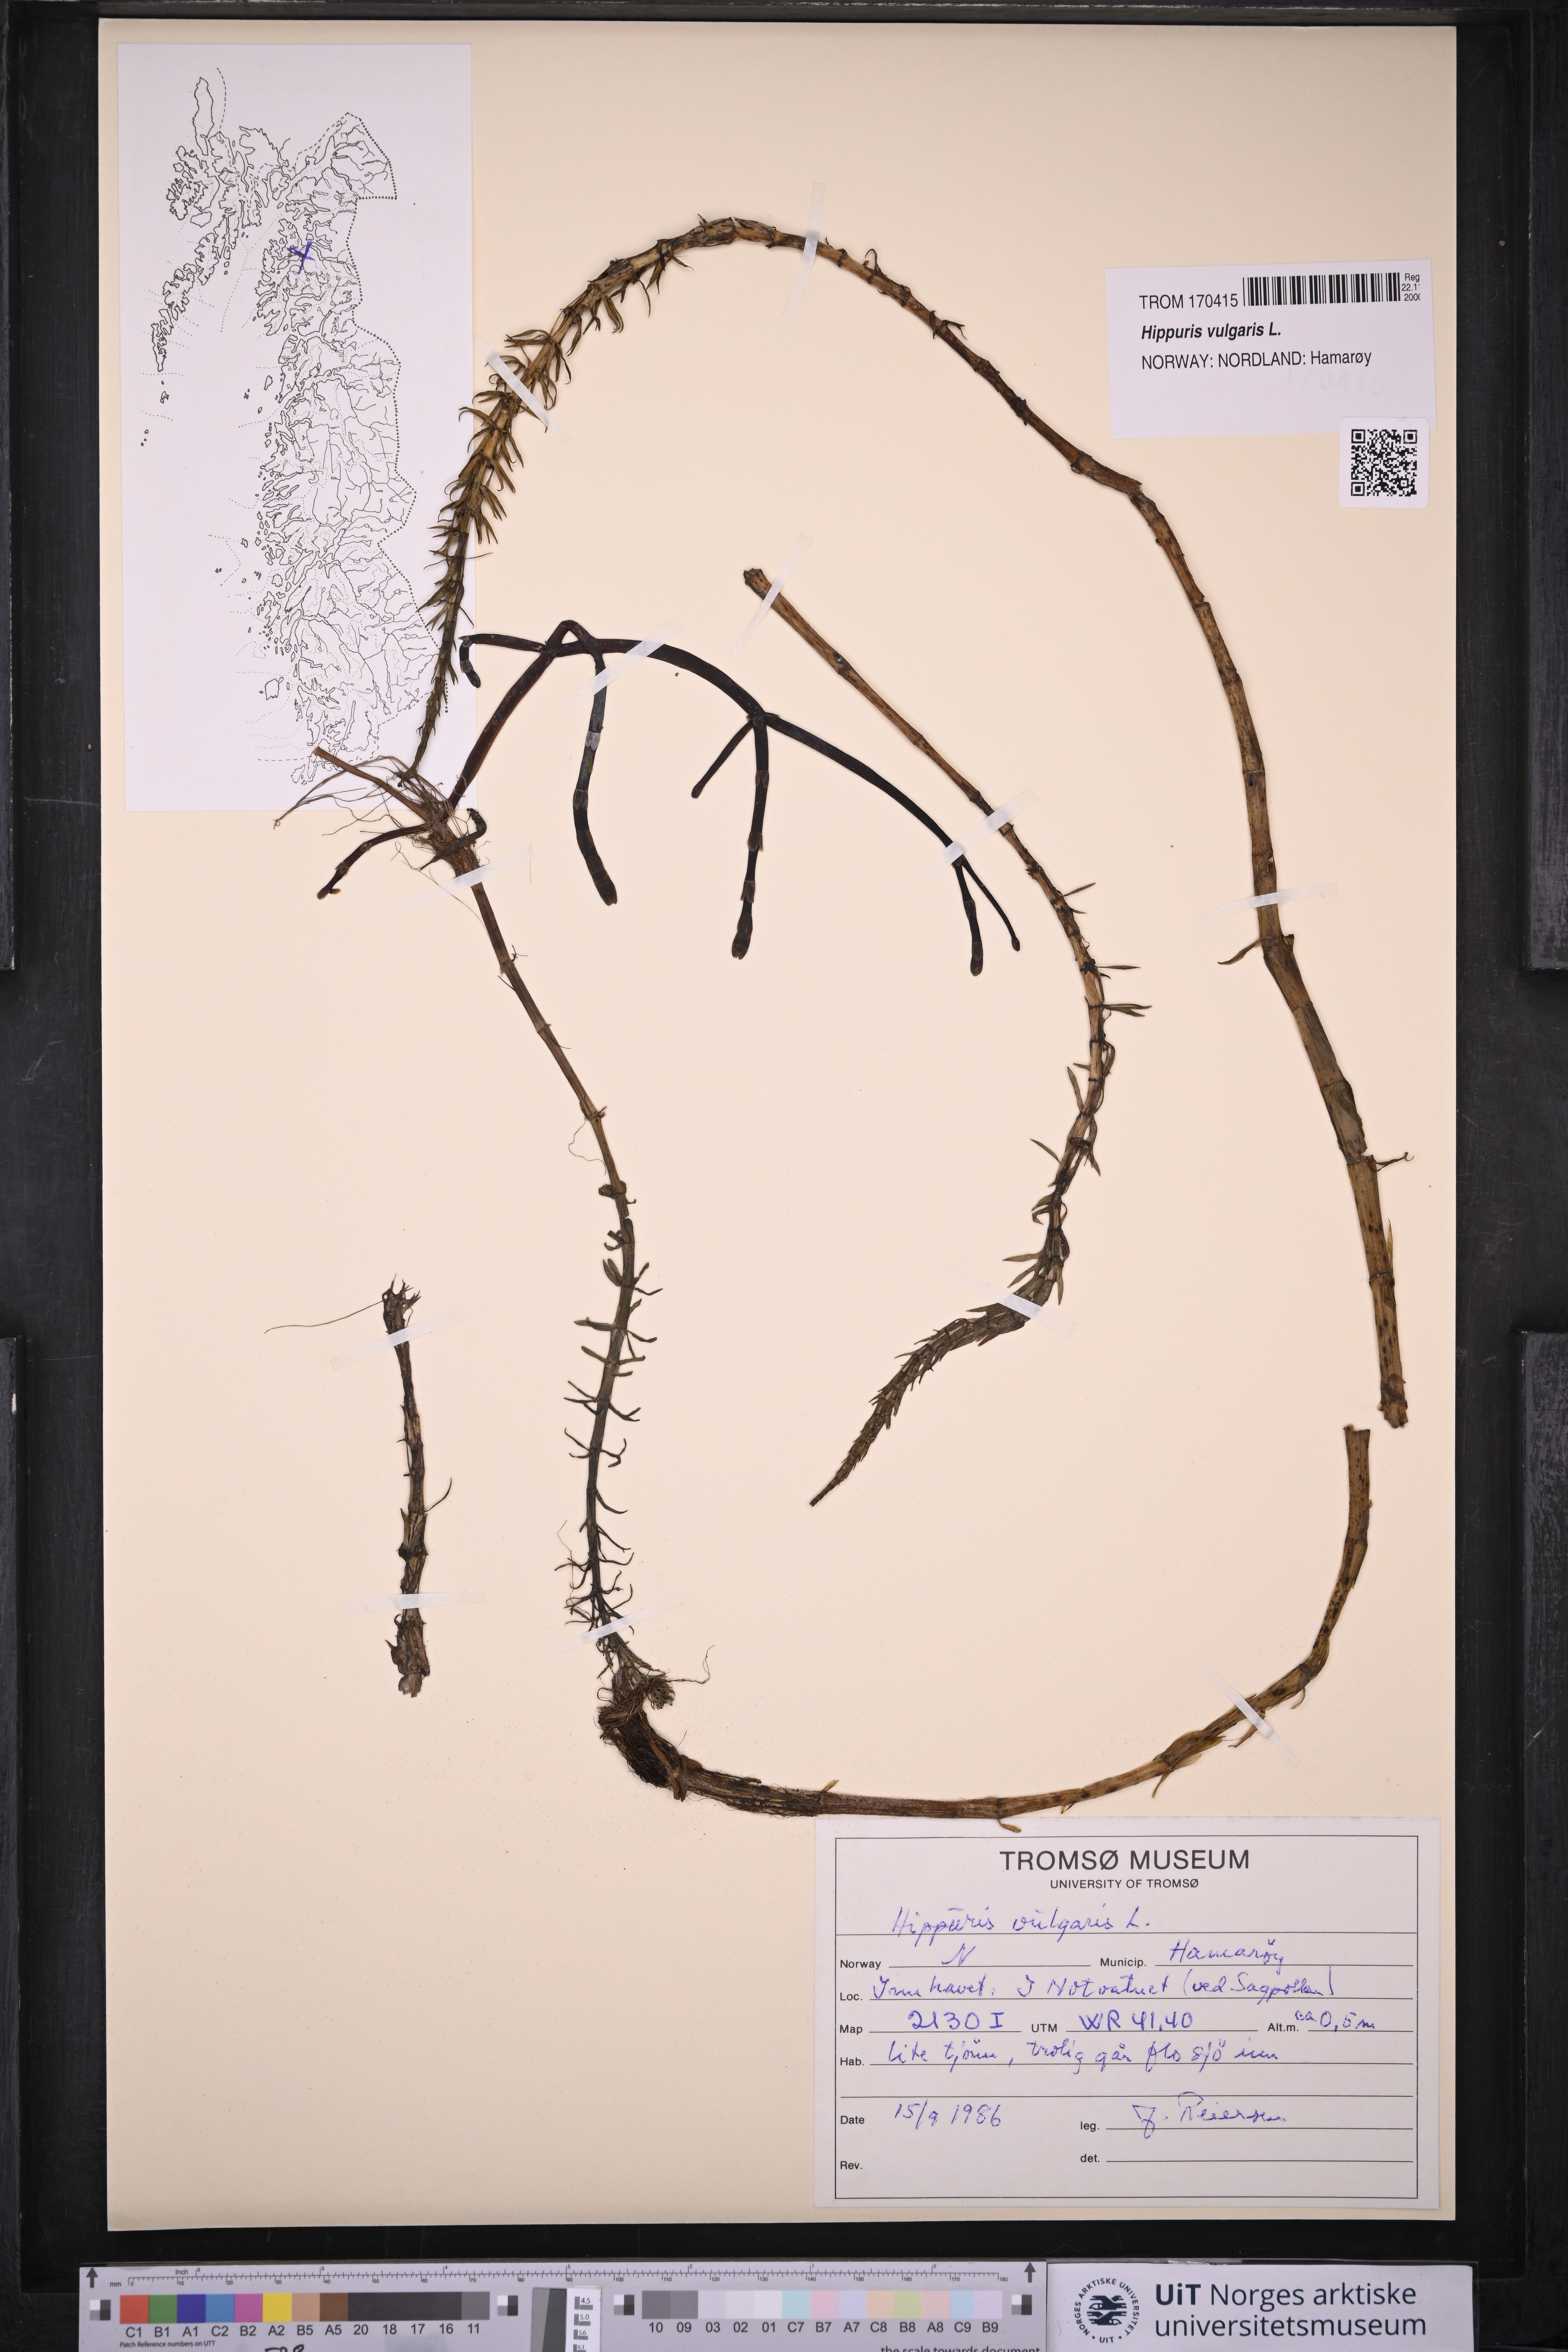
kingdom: Plantae
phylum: Tracheophyta
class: Magnoliopsida
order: Lamiales
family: Plantaginaceae
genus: Hippuris
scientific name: Hippuris vulgaris
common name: Mare's-tail
